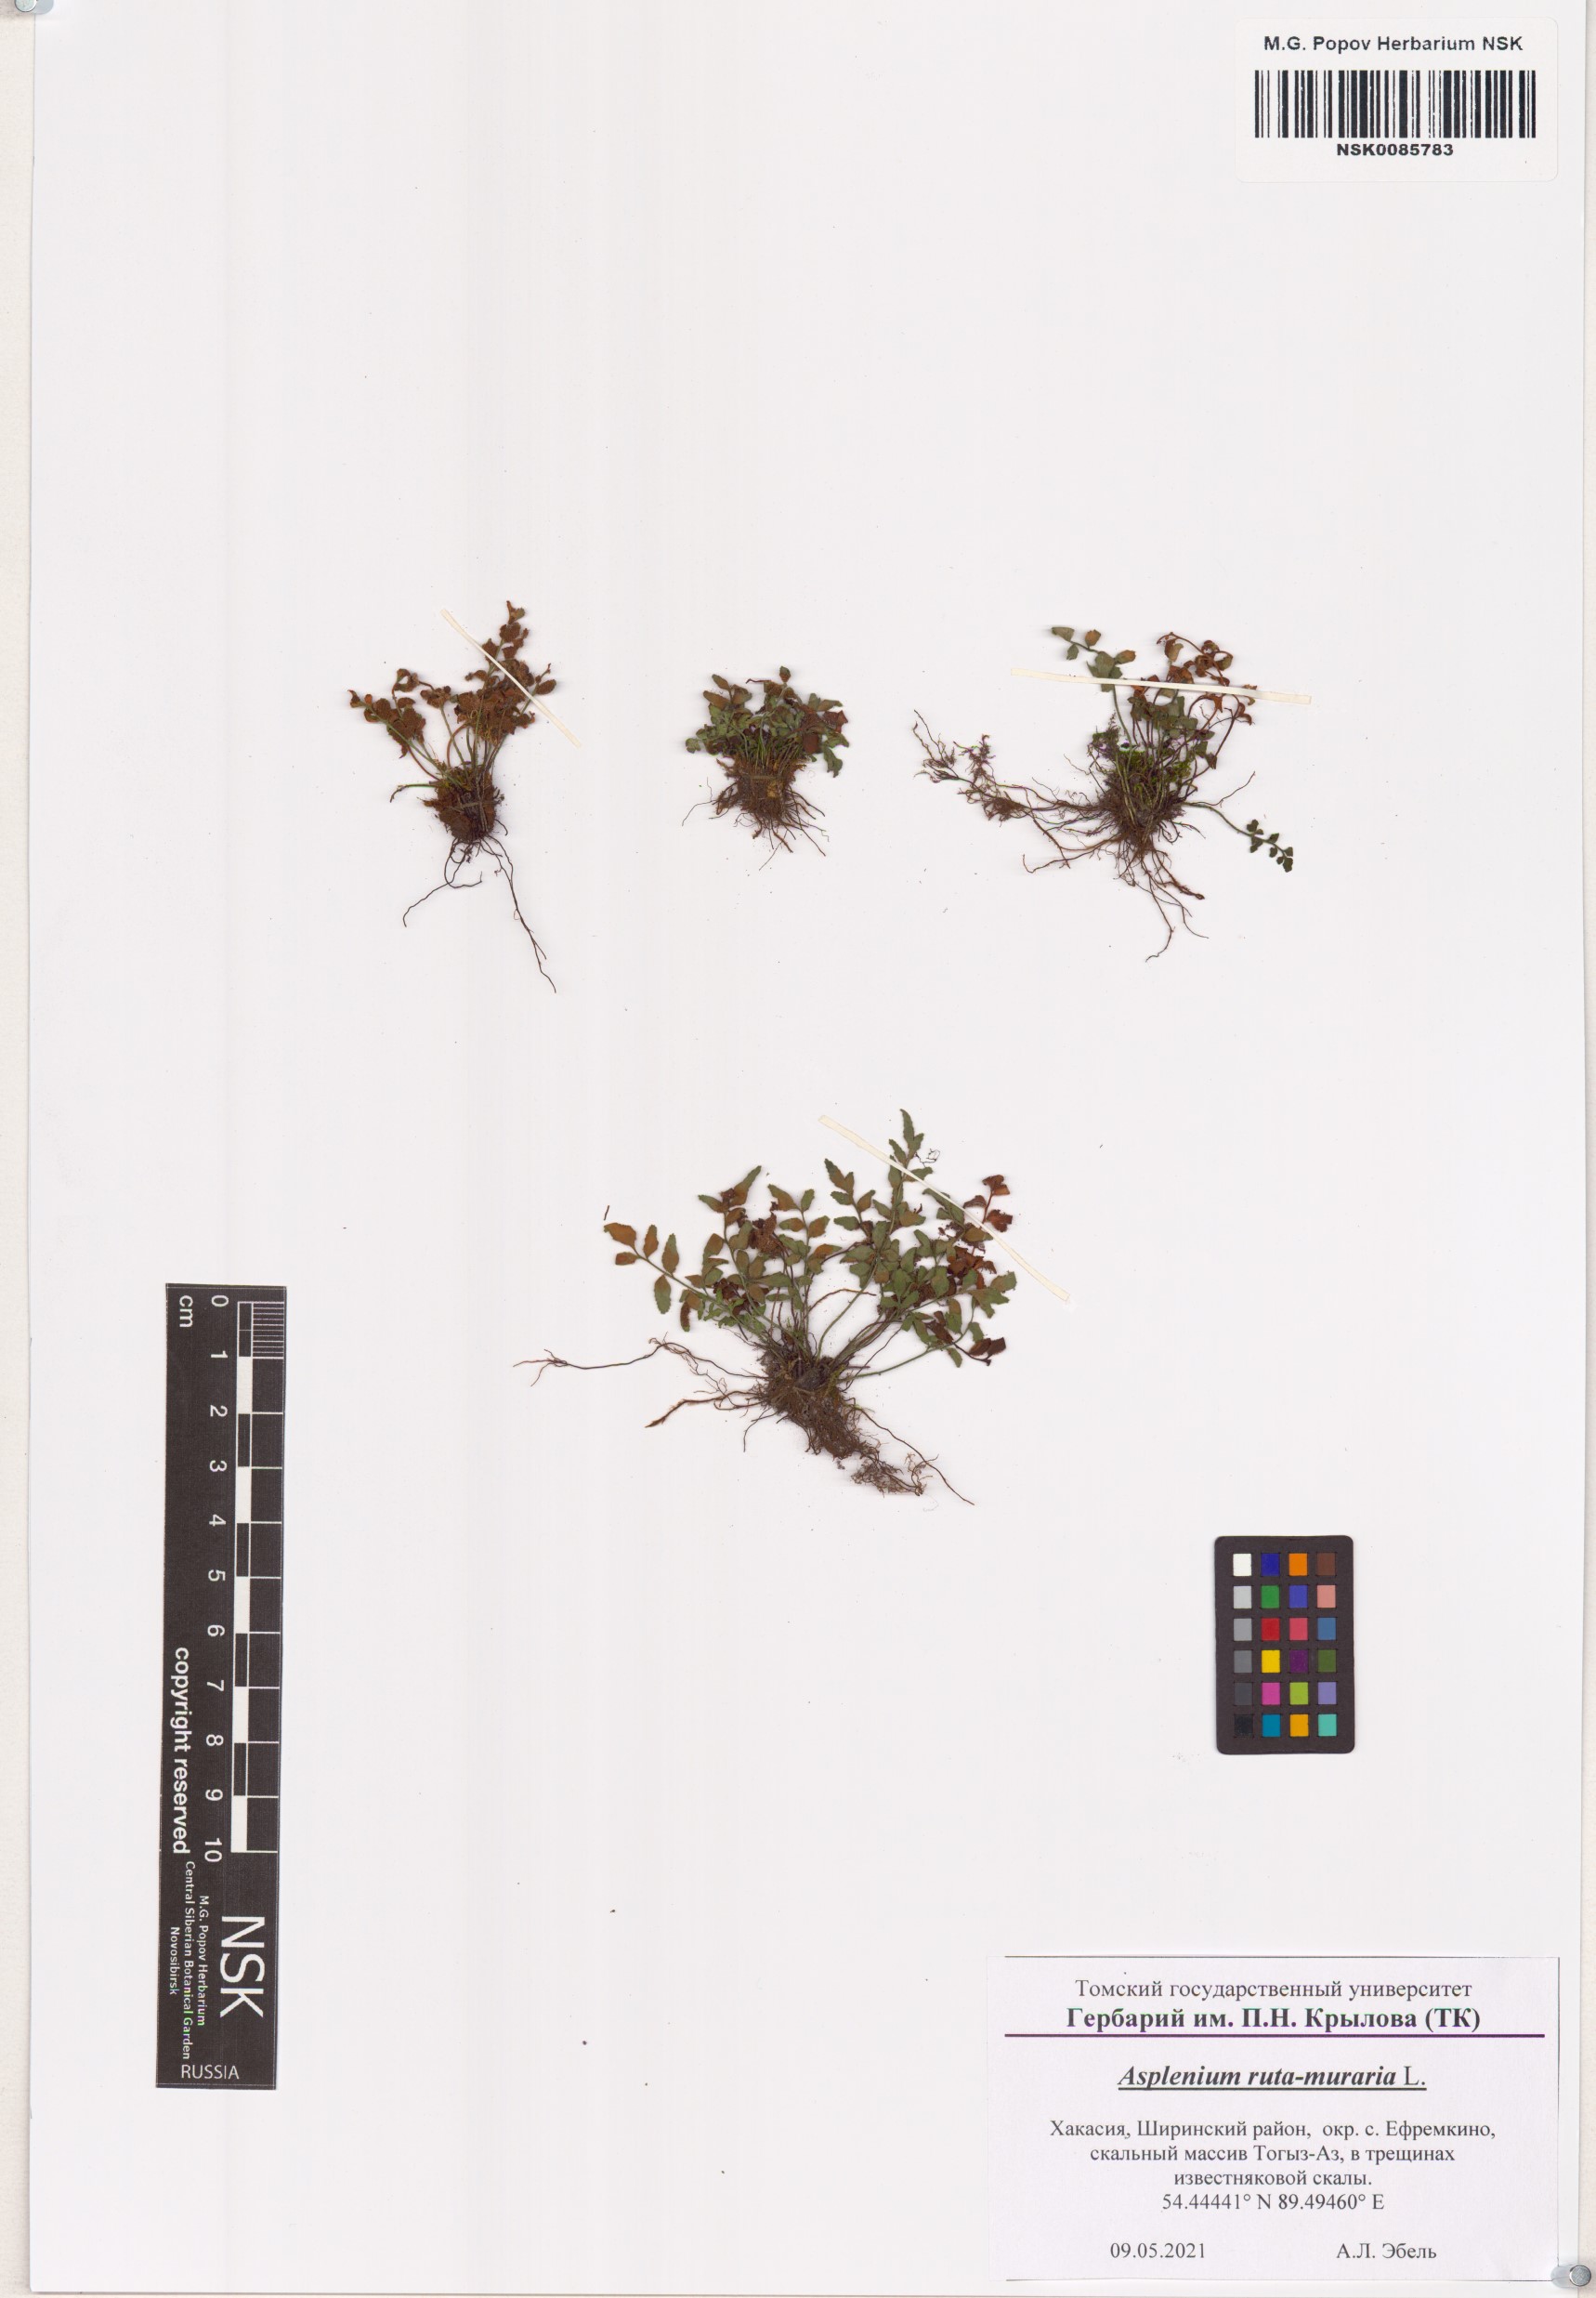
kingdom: Plantae
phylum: Tracheophyta
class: Polypodiopsida
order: Polypodiales
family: Aspleniaceae
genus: Asplenium
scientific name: Asplenium ruta-muraria
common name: Wall-rue
